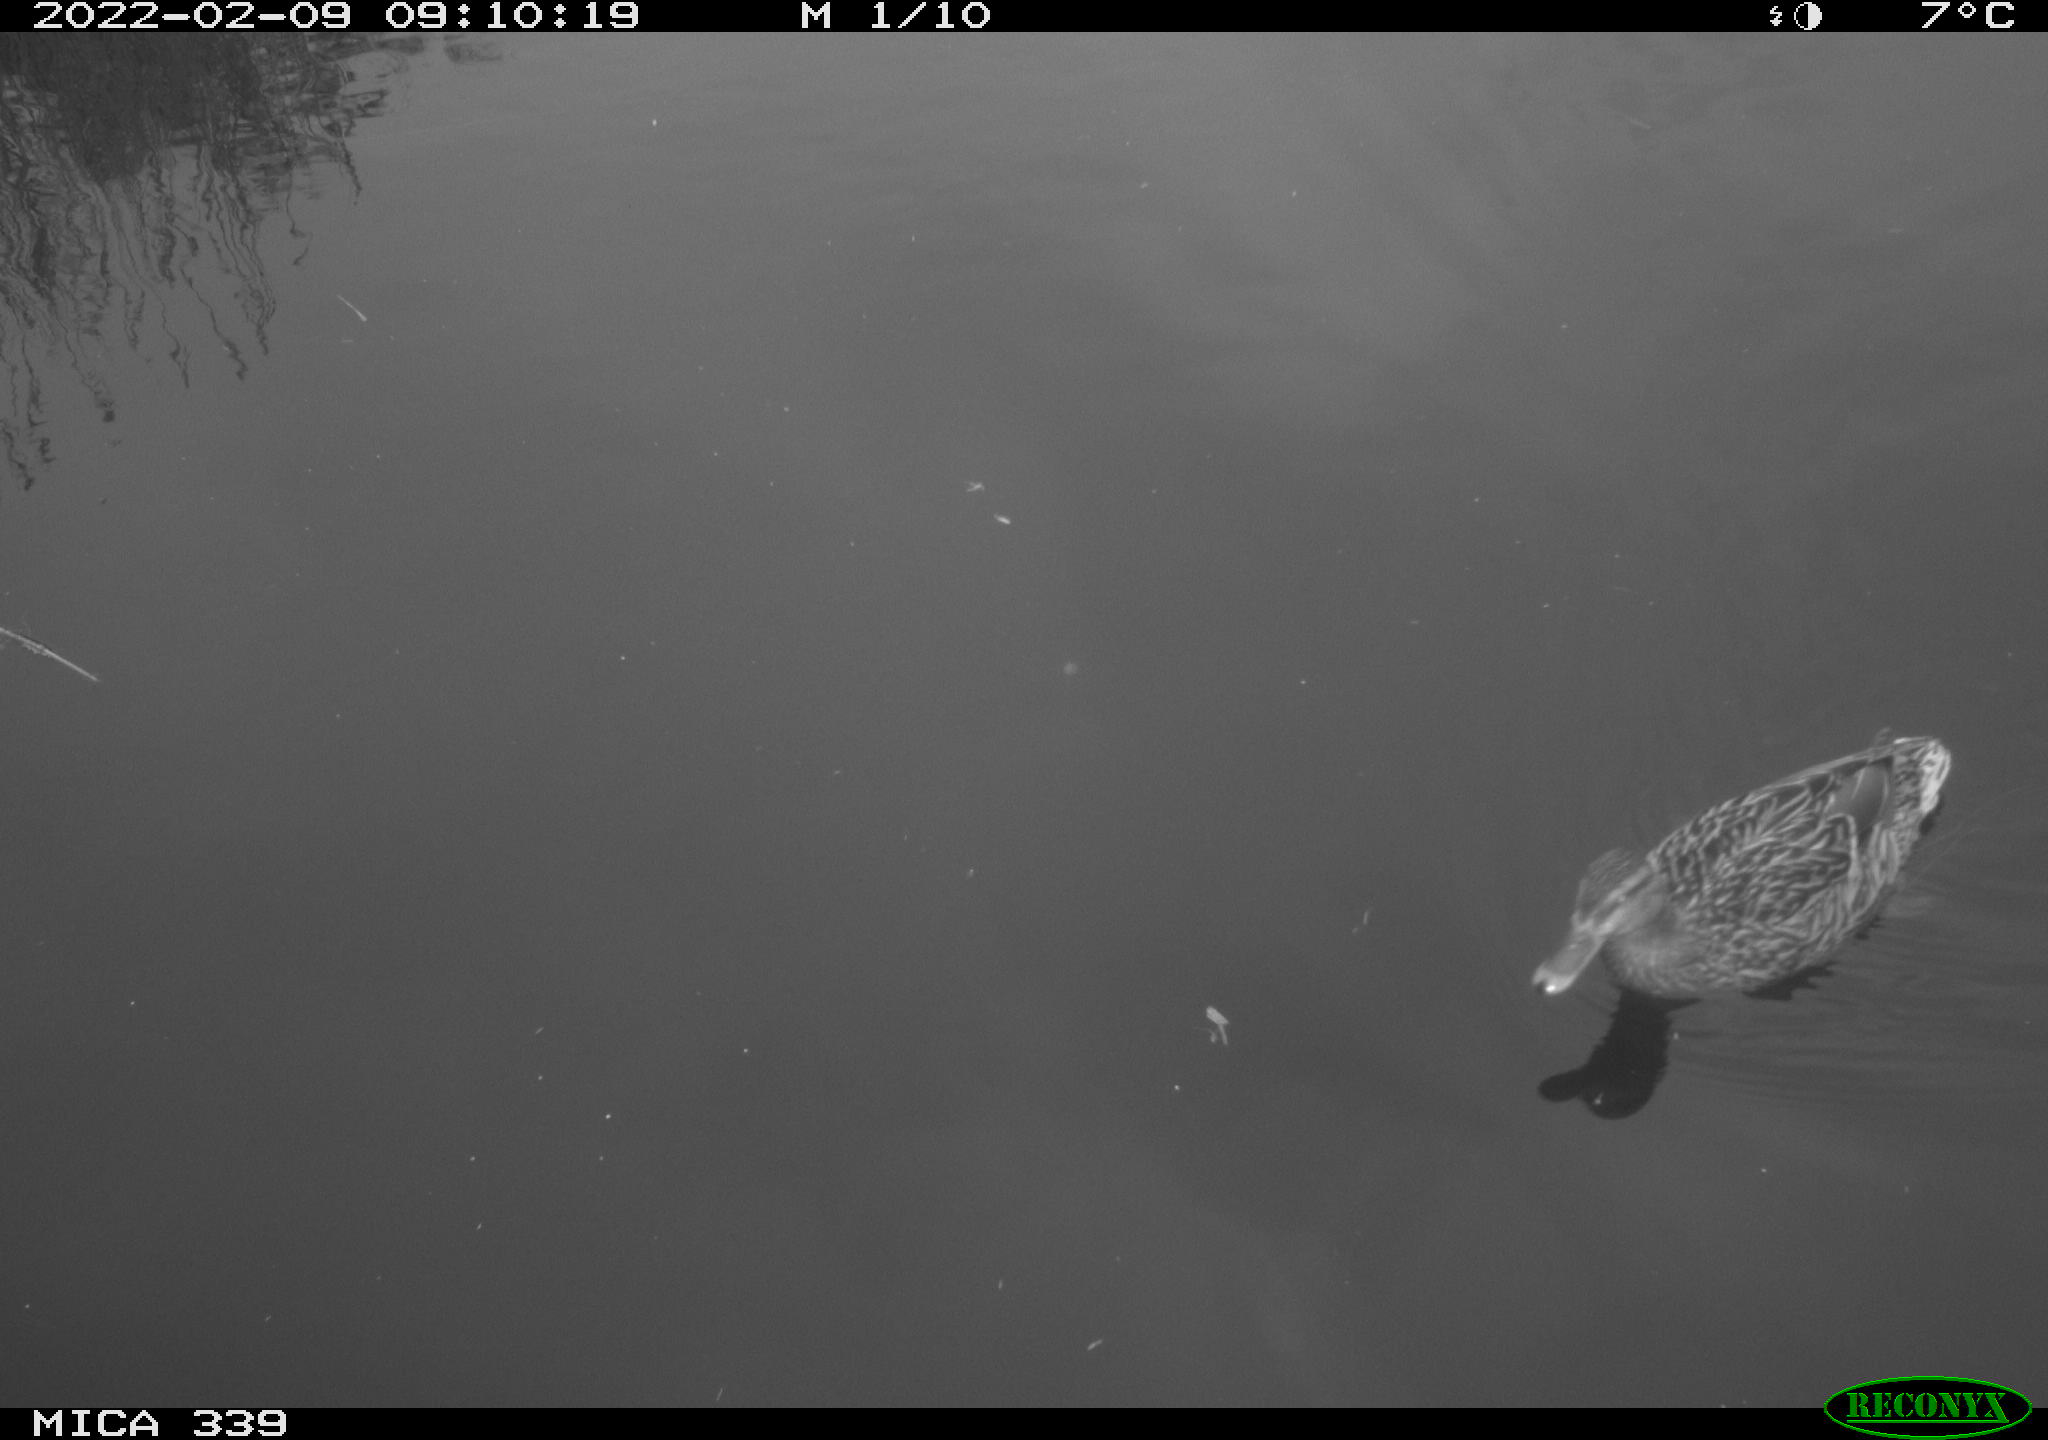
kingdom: Animalia
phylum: Chordata
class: Aves
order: Anseriformes
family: Anatidae
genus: Anas
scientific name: Anas platyrhynchos
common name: Mallard
